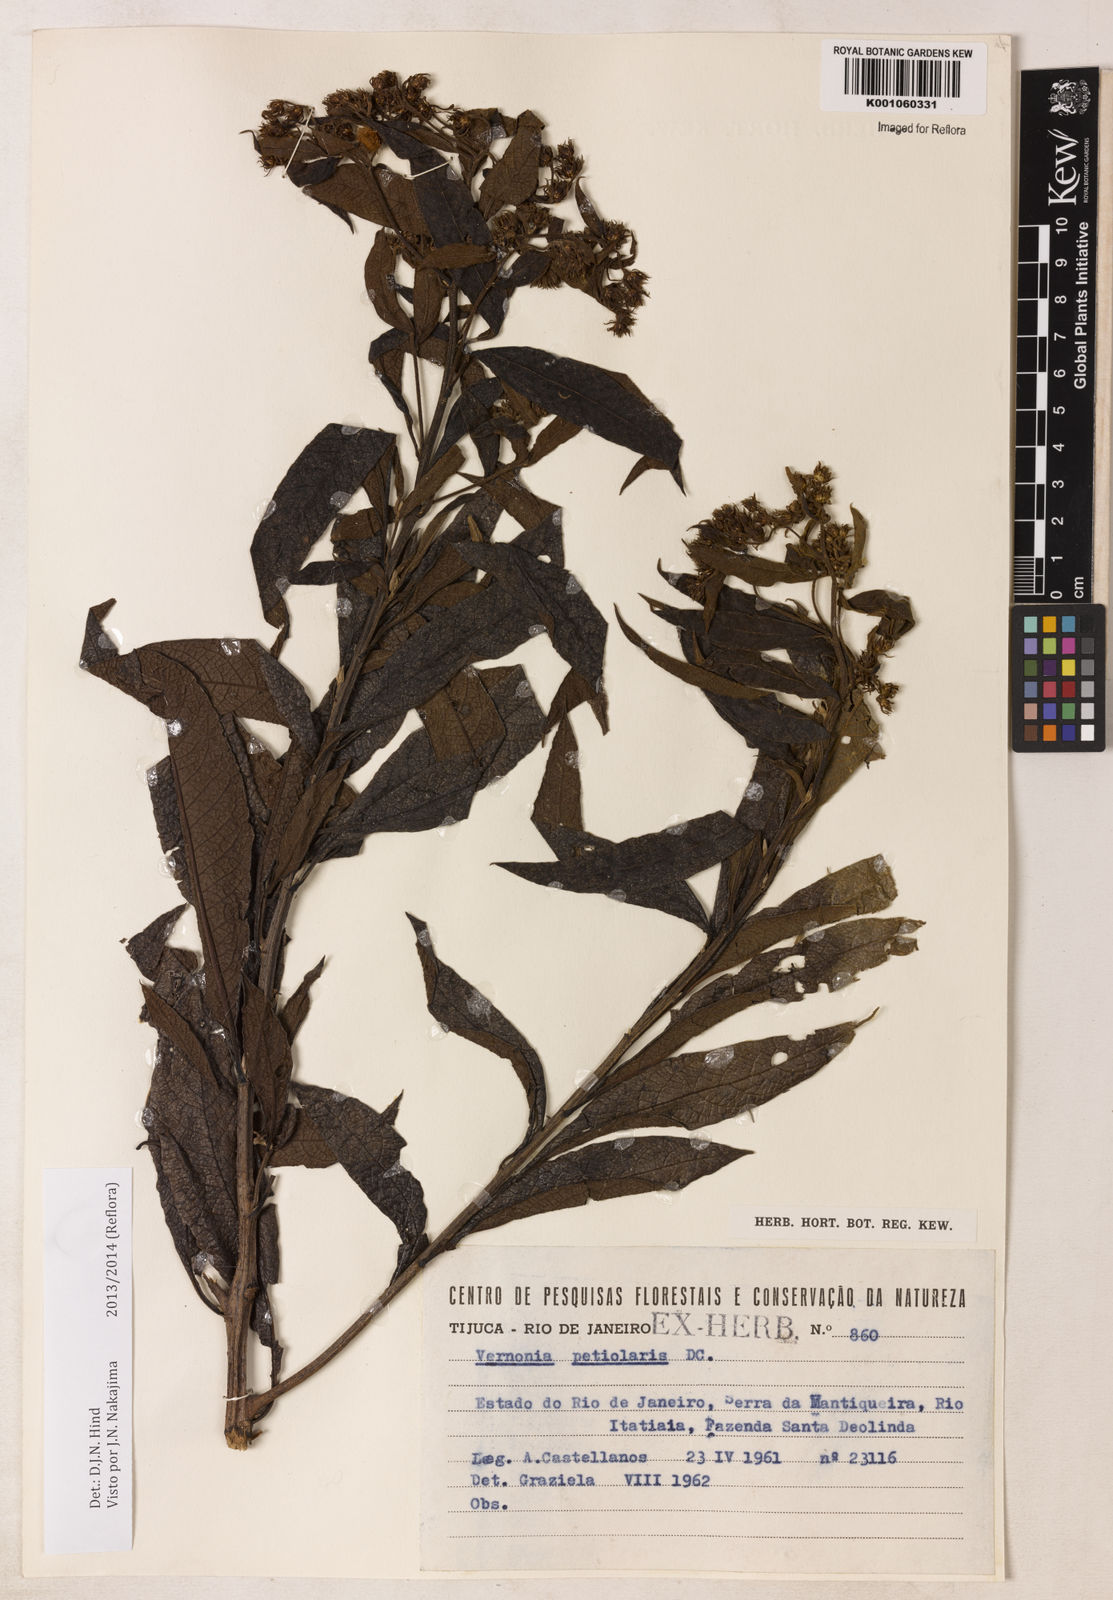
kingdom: Plantae
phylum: Tracheophyta
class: Magnoliopsida
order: Asterales
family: Asteraceae
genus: Vernonanthura
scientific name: Vernonanthura petiolaris
